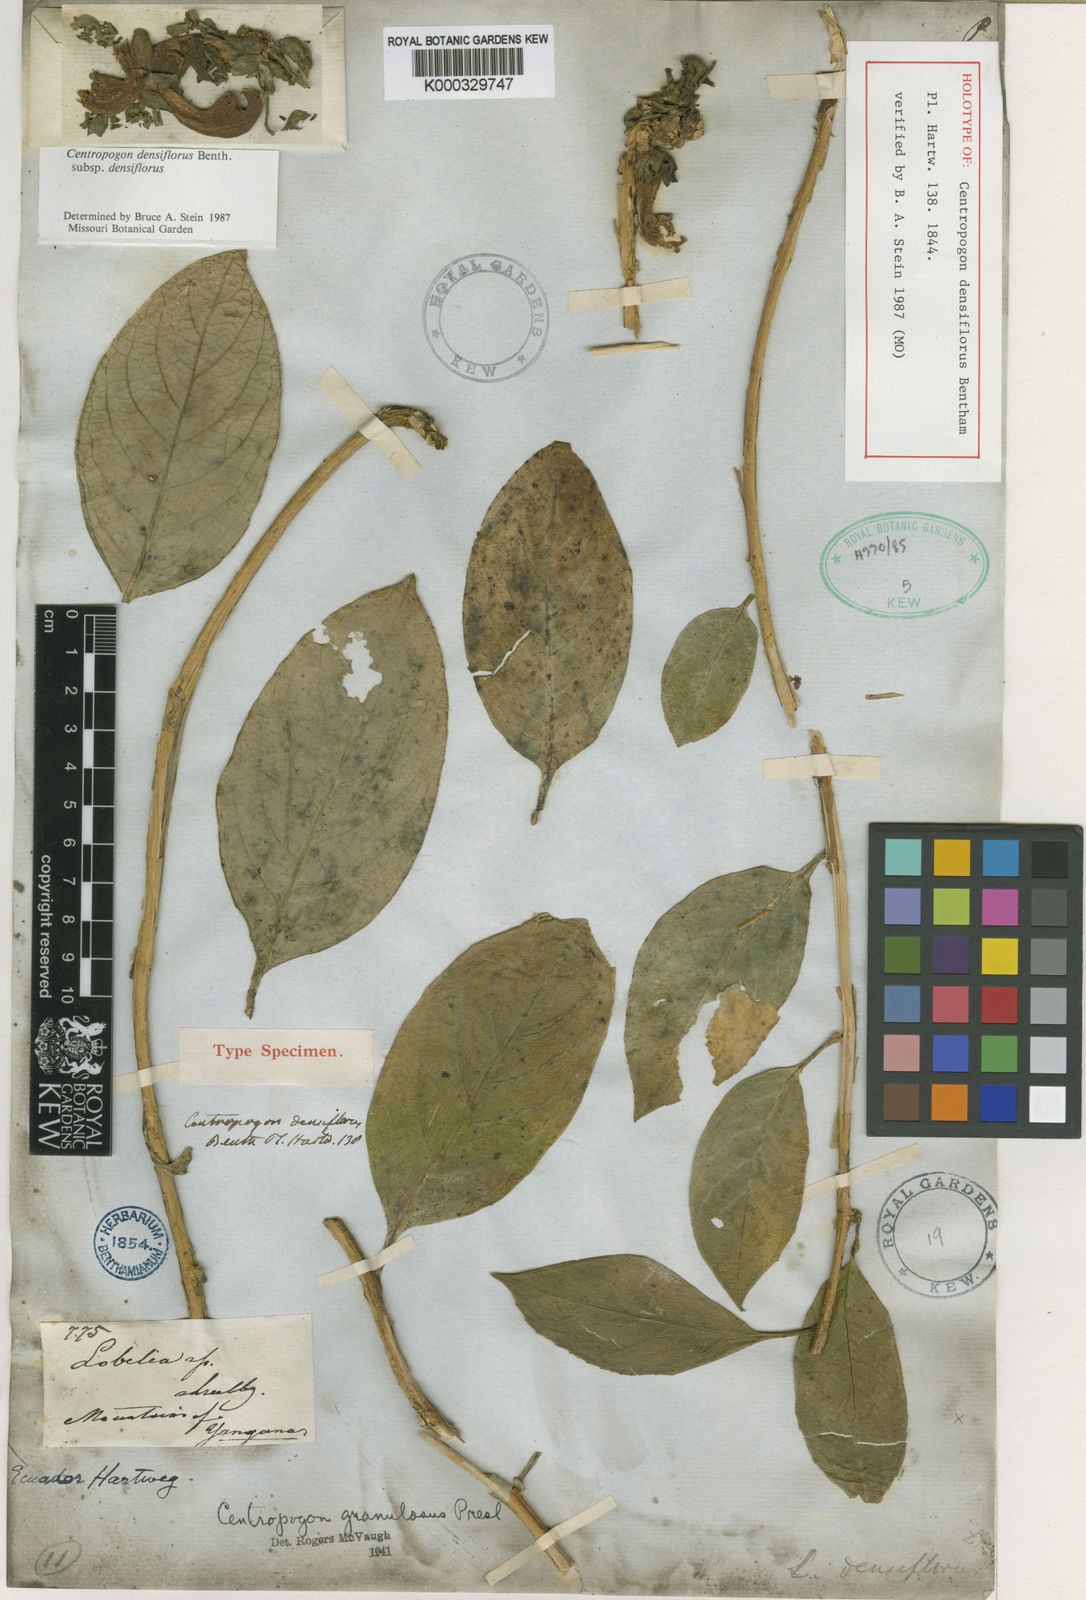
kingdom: Plantae
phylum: Tracheophyta
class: Magnoliopsida
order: Asterales
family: Campanulaceae
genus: Centropogon
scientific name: Centropogon densiflorus
